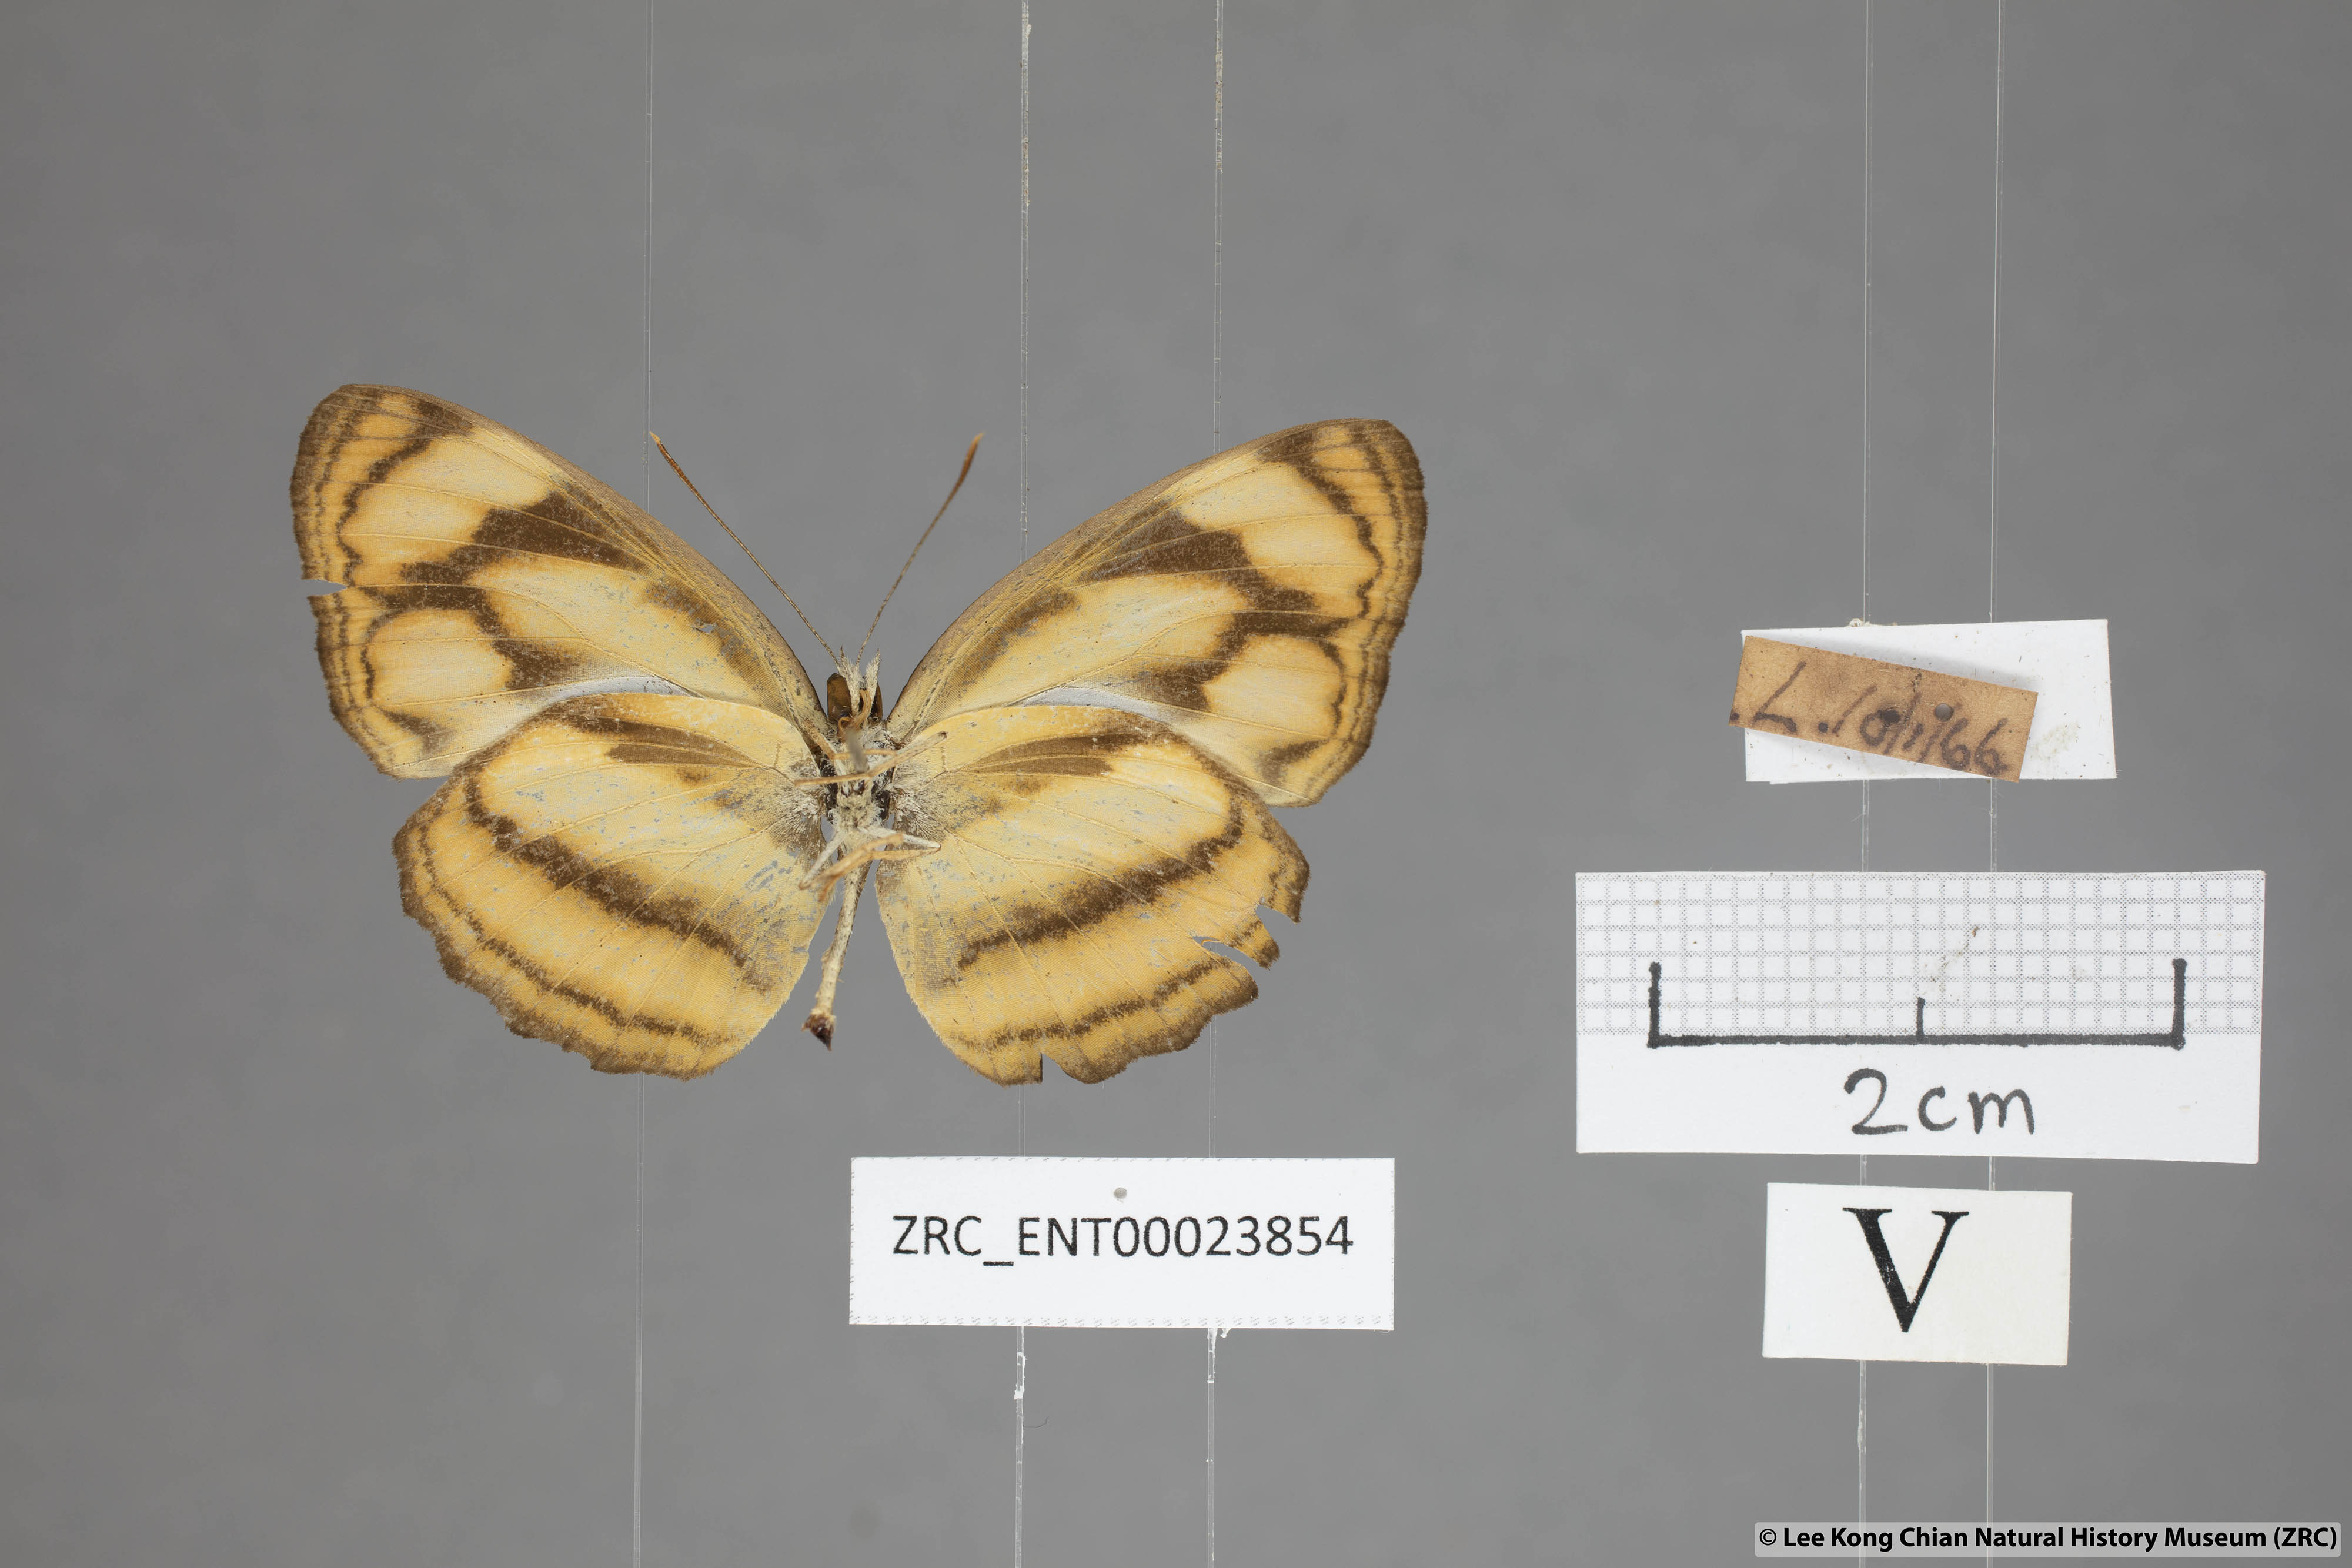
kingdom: Animalia
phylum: Arthropoda
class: Insecta
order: Lepidoptera
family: Nymphalidae
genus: Lasippa
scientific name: Lasippa tiga
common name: Malayan lascar
